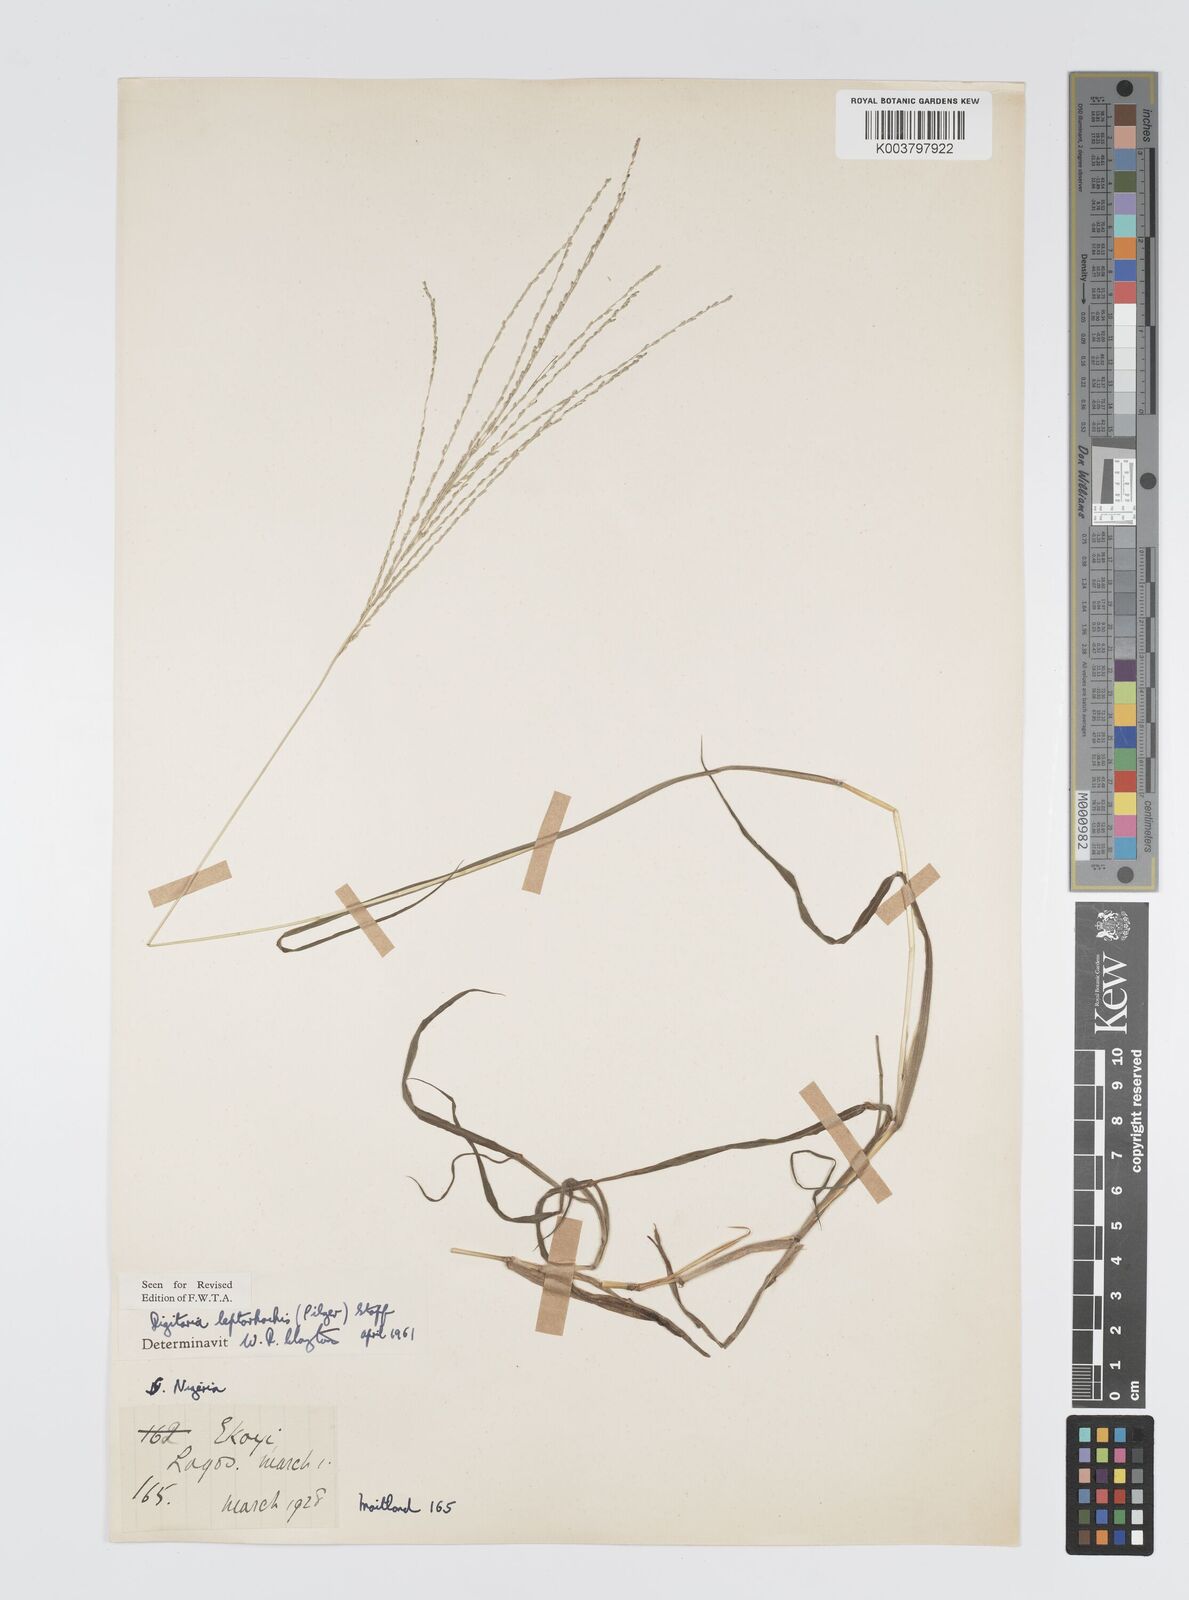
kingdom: Plantae
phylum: Tracheophyta
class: Liliopsida
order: Poales
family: Poaceae
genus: Digitaria
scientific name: Digitaria leptorhachis
